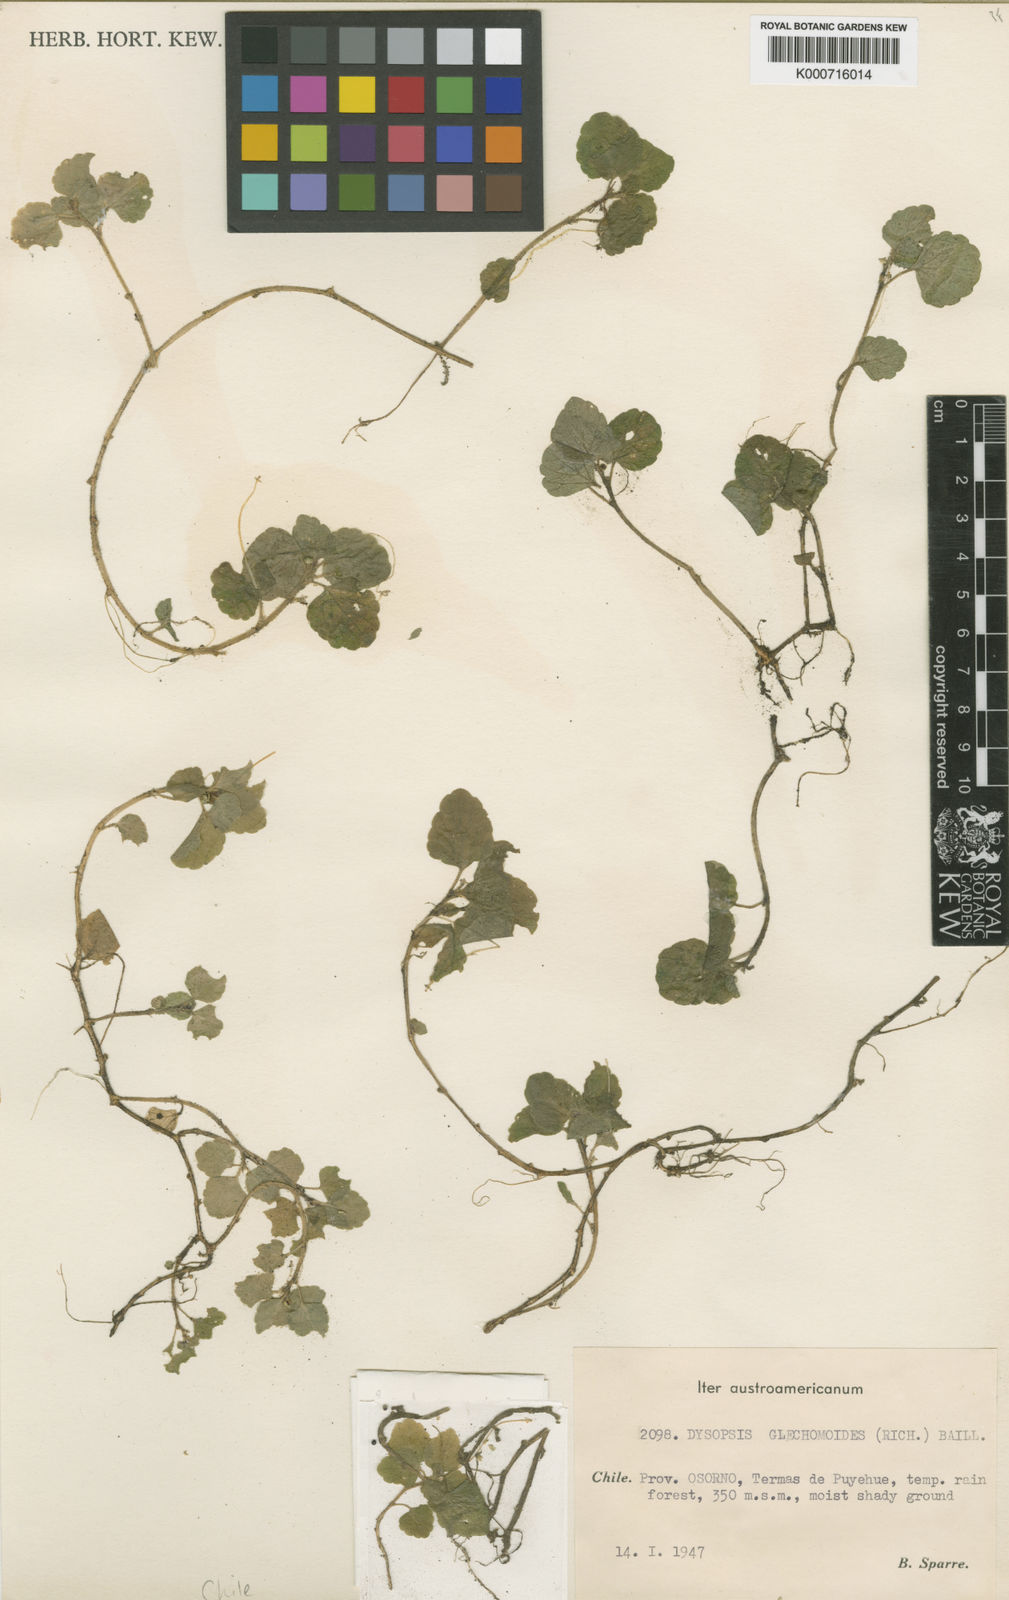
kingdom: Plantae
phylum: Tracheophyta
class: Magnoliopsida
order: Malpighiales
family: Euphorbiaceae
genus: Dysopsis
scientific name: Dysopsis
